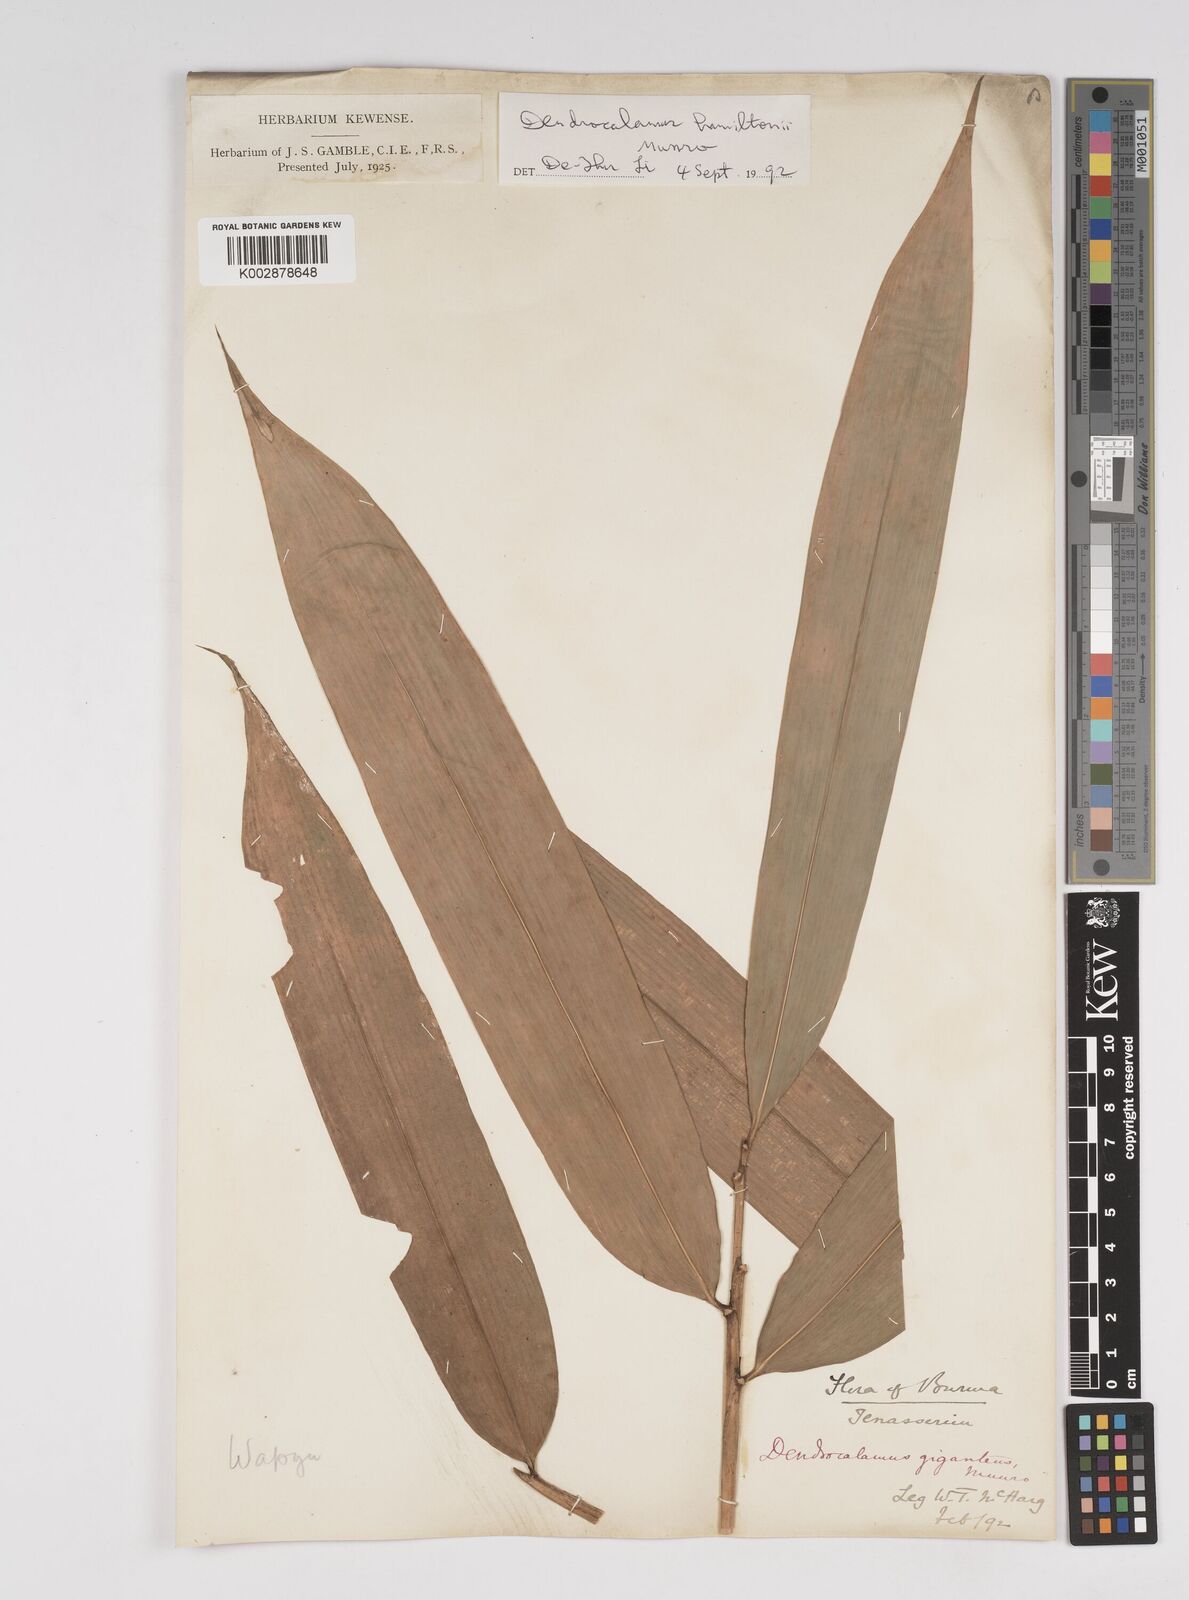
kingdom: Plantae
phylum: Tracheophyta
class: Liliopsida
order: Poales
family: Poaceae
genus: Dendrocalamus
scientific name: Dendrocalamus giganteus
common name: Giant bamboo
